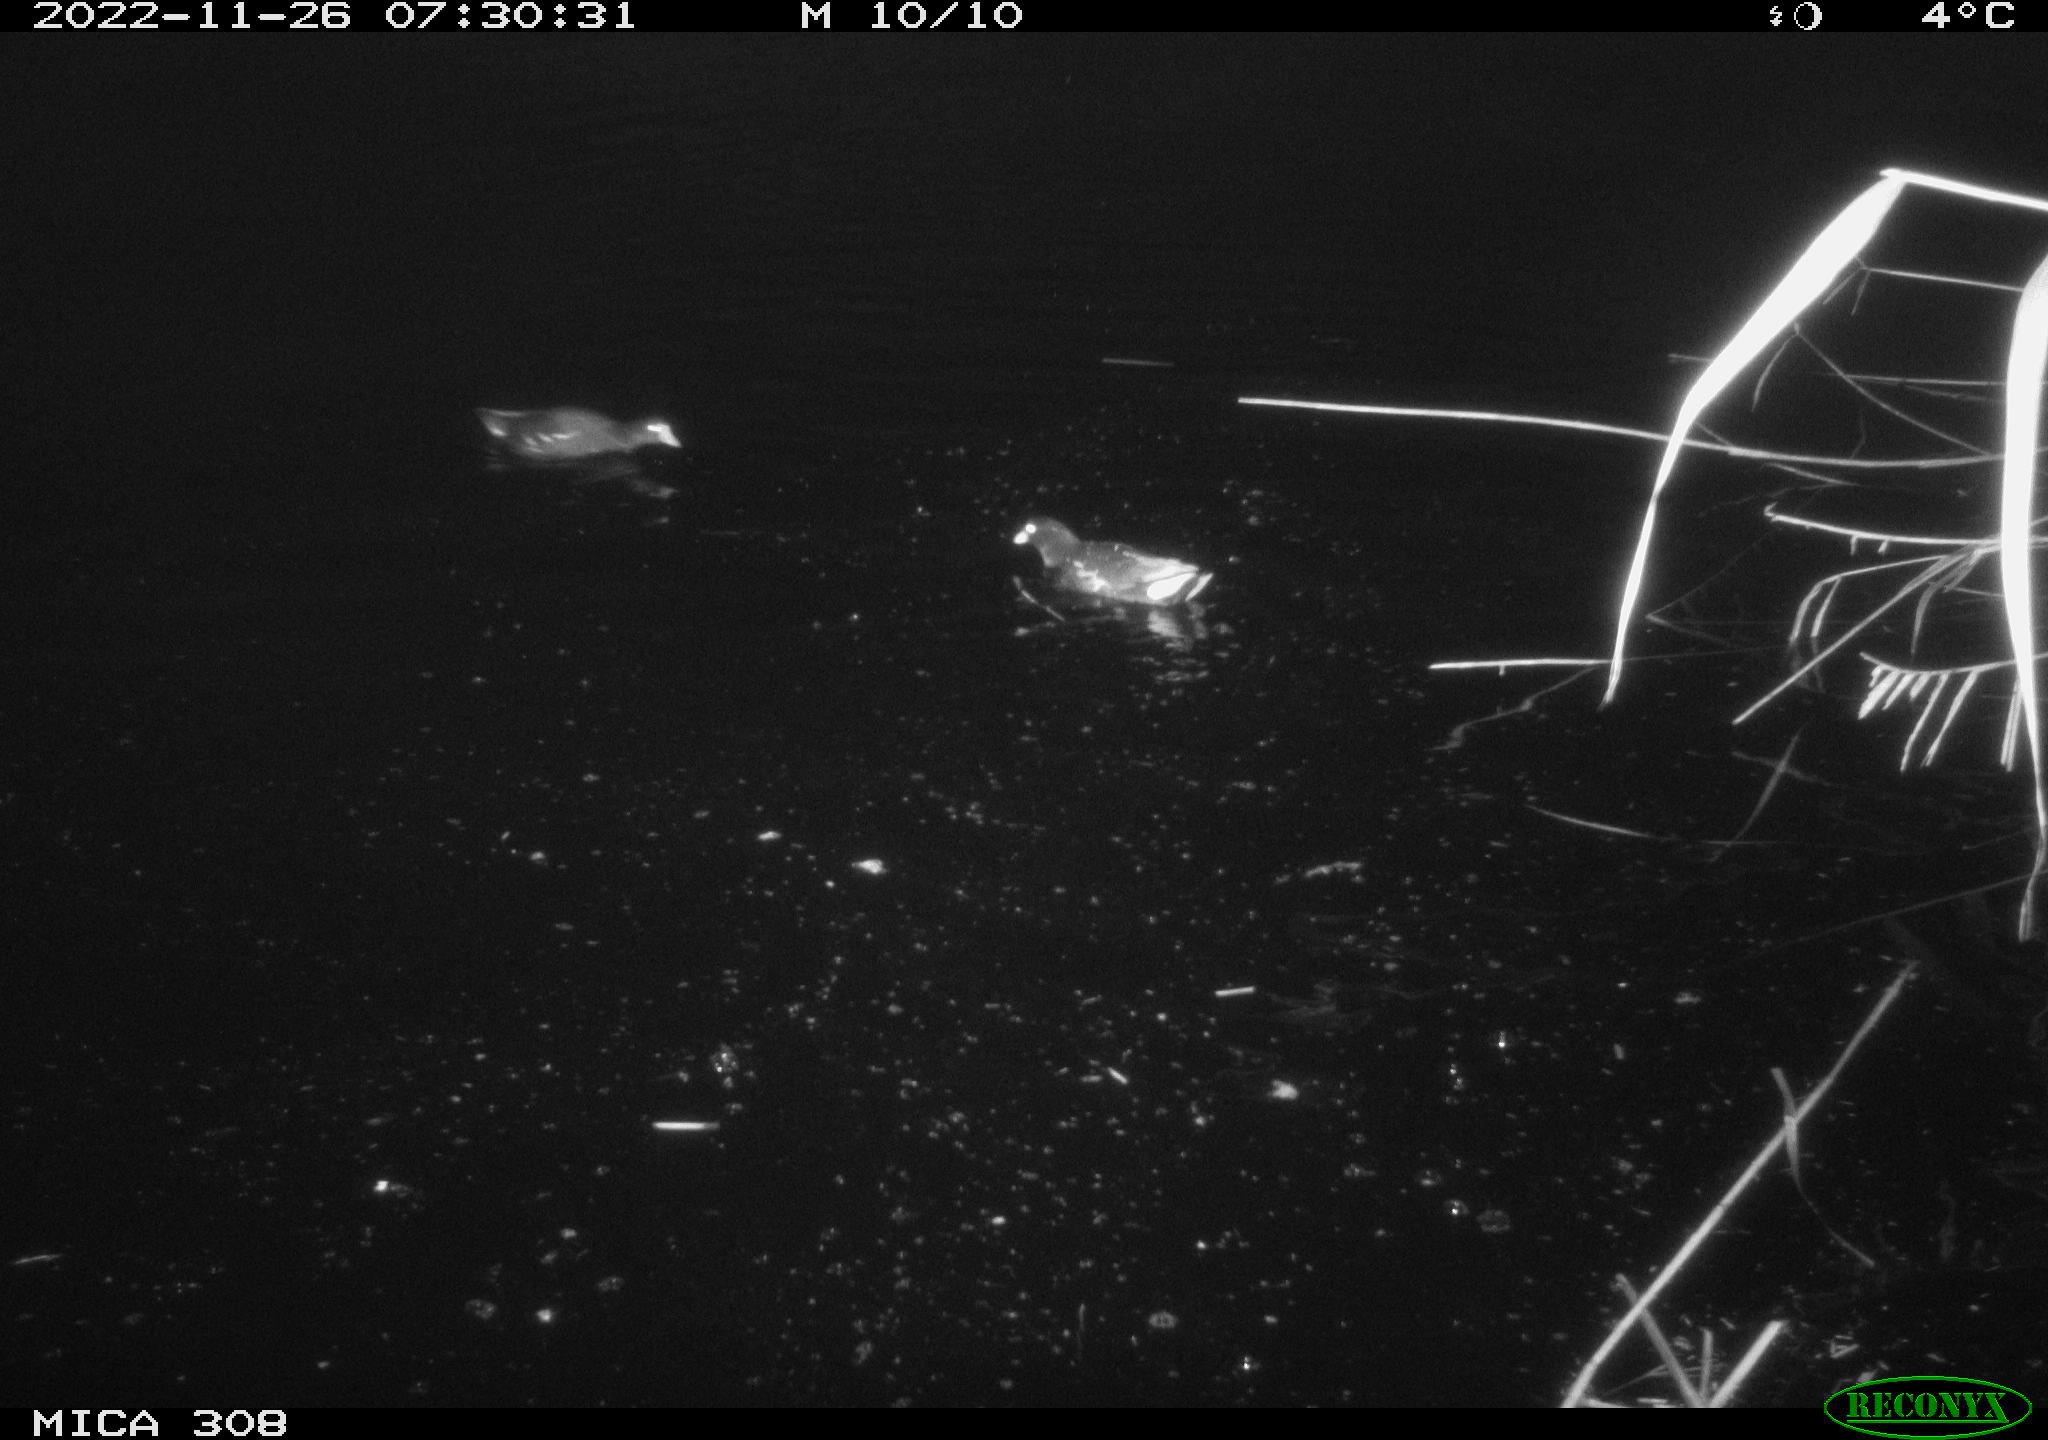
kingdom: Animalia
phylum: Chordata
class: Aves
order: Gruiformes
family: Rallidae
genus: Gallinula
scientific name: Gallinula chloropus
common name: Common moorhen
